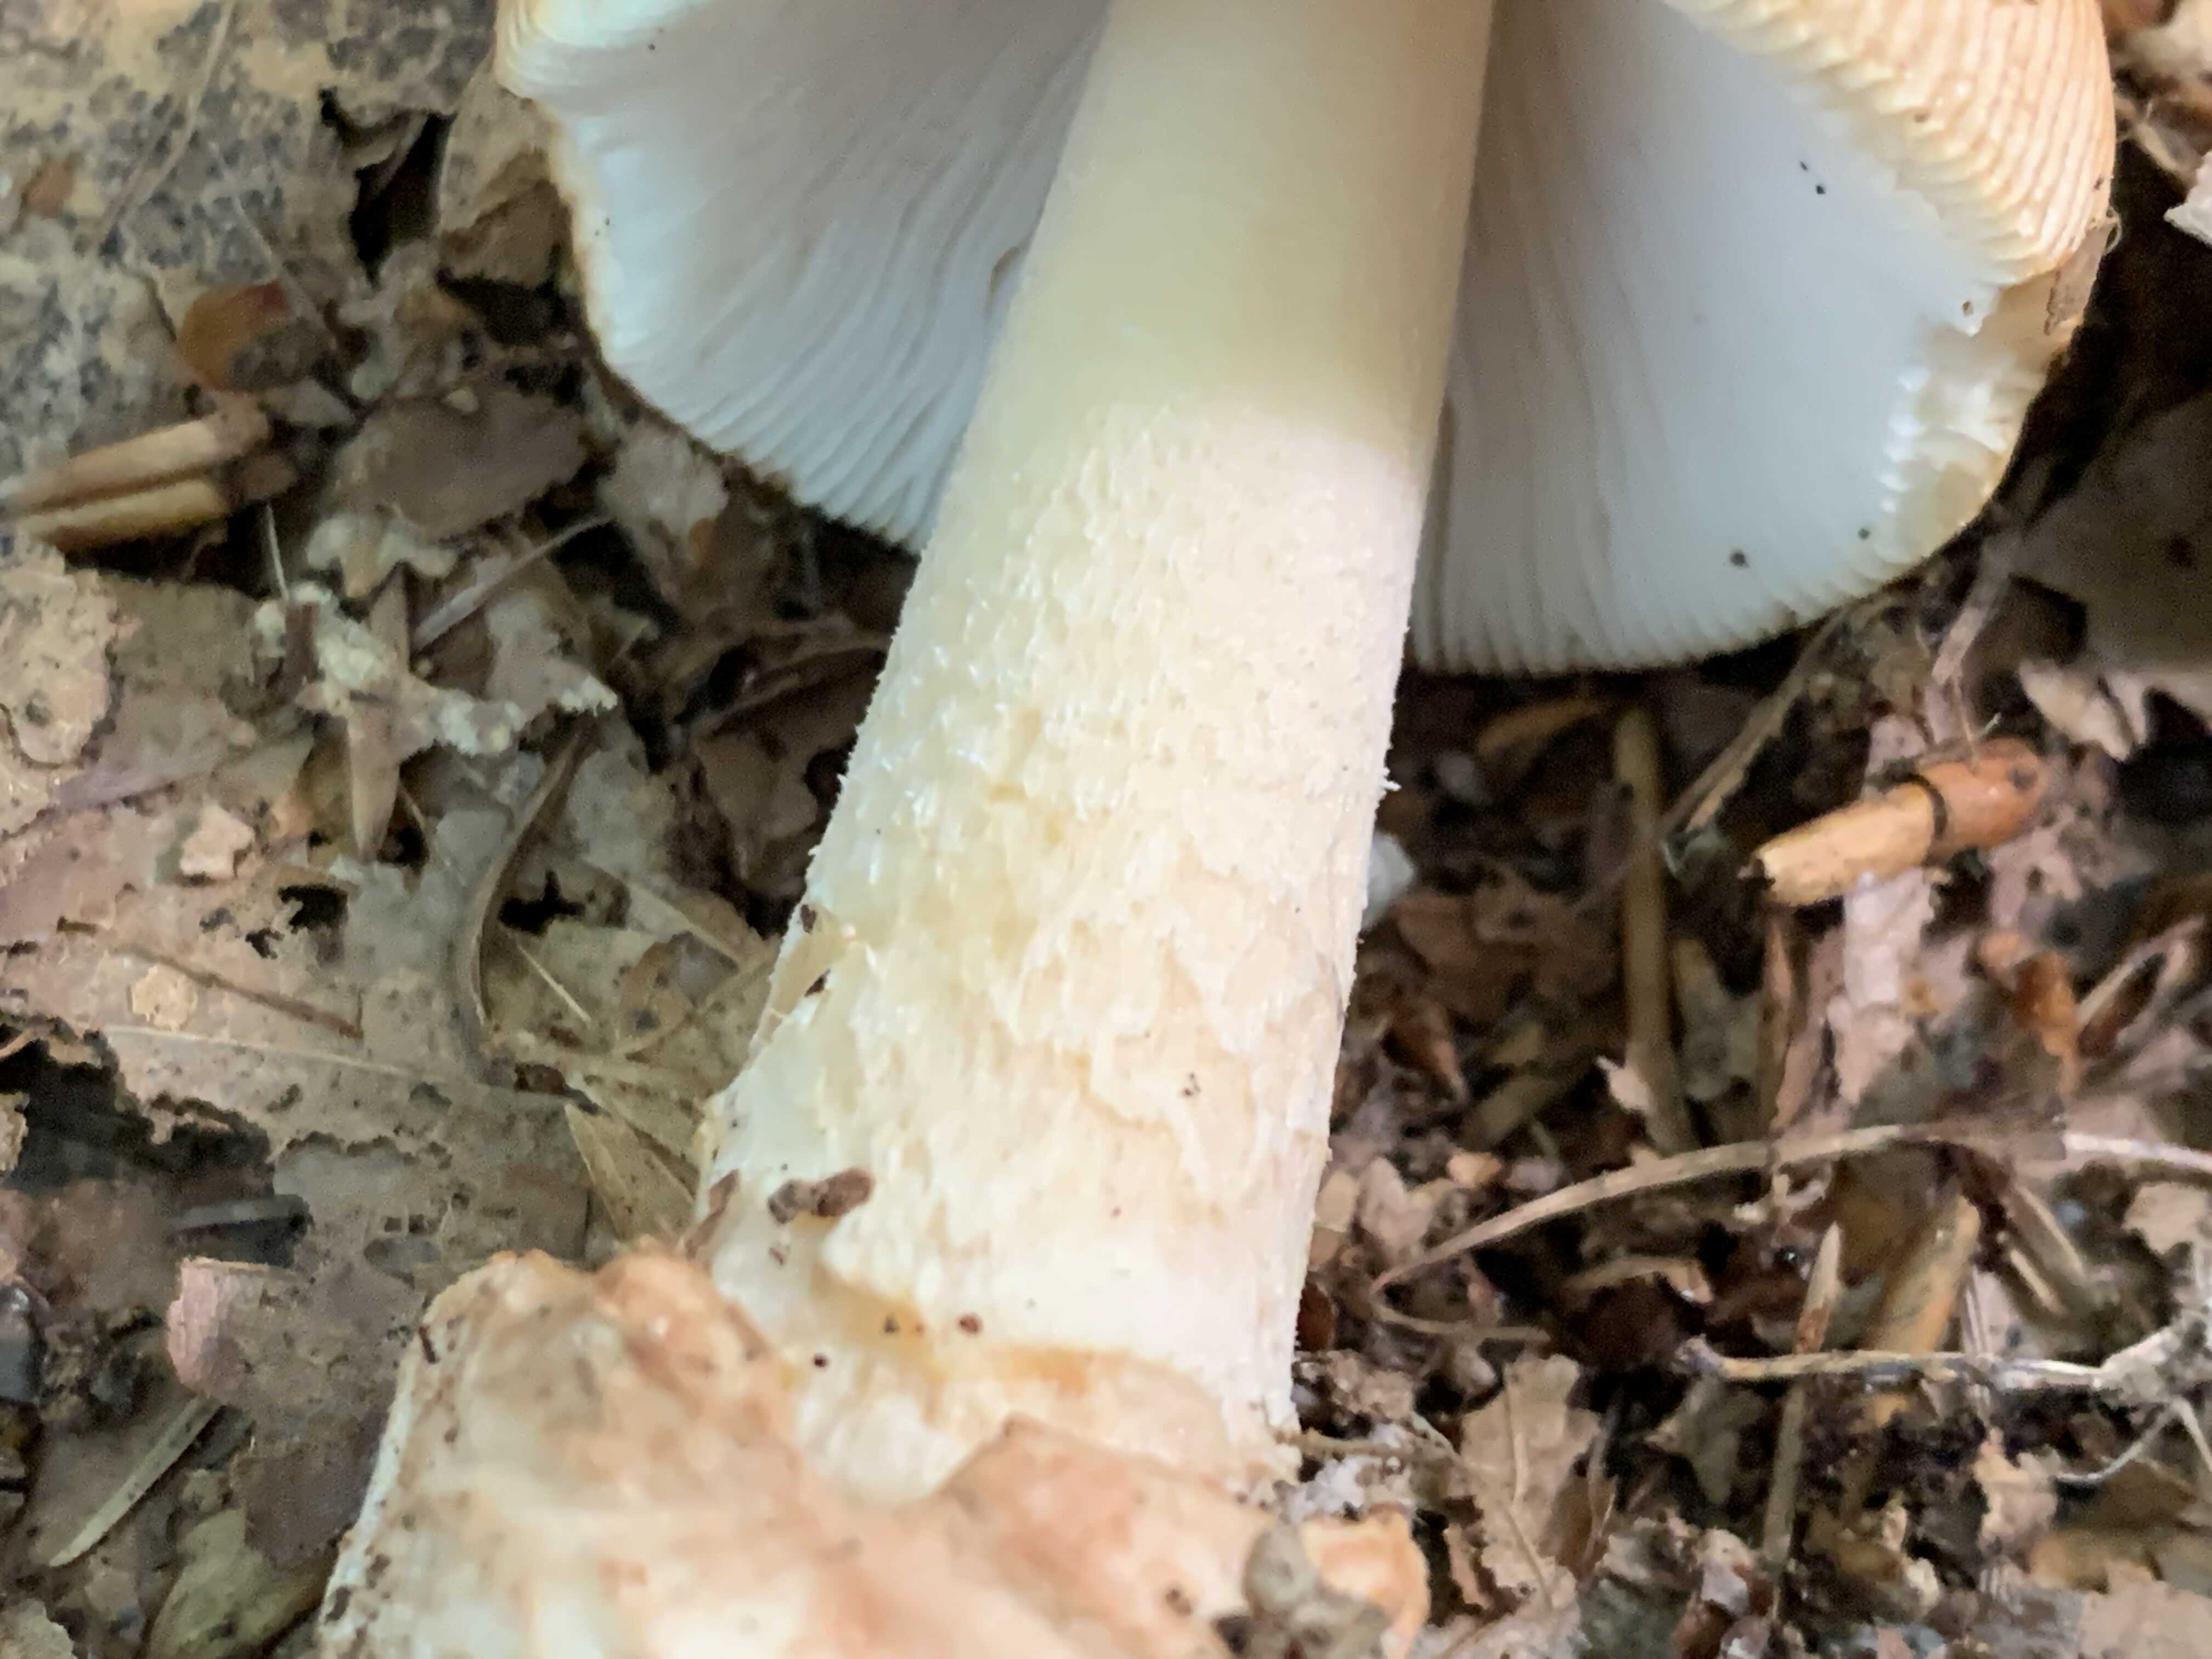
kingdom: Fungi
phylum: Basidiomycota
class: Agaricomycetes
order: Agaricales
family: Amanitaceae
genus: Amanita
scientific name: Amanita fulva
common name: brun kam-fluesvamp
